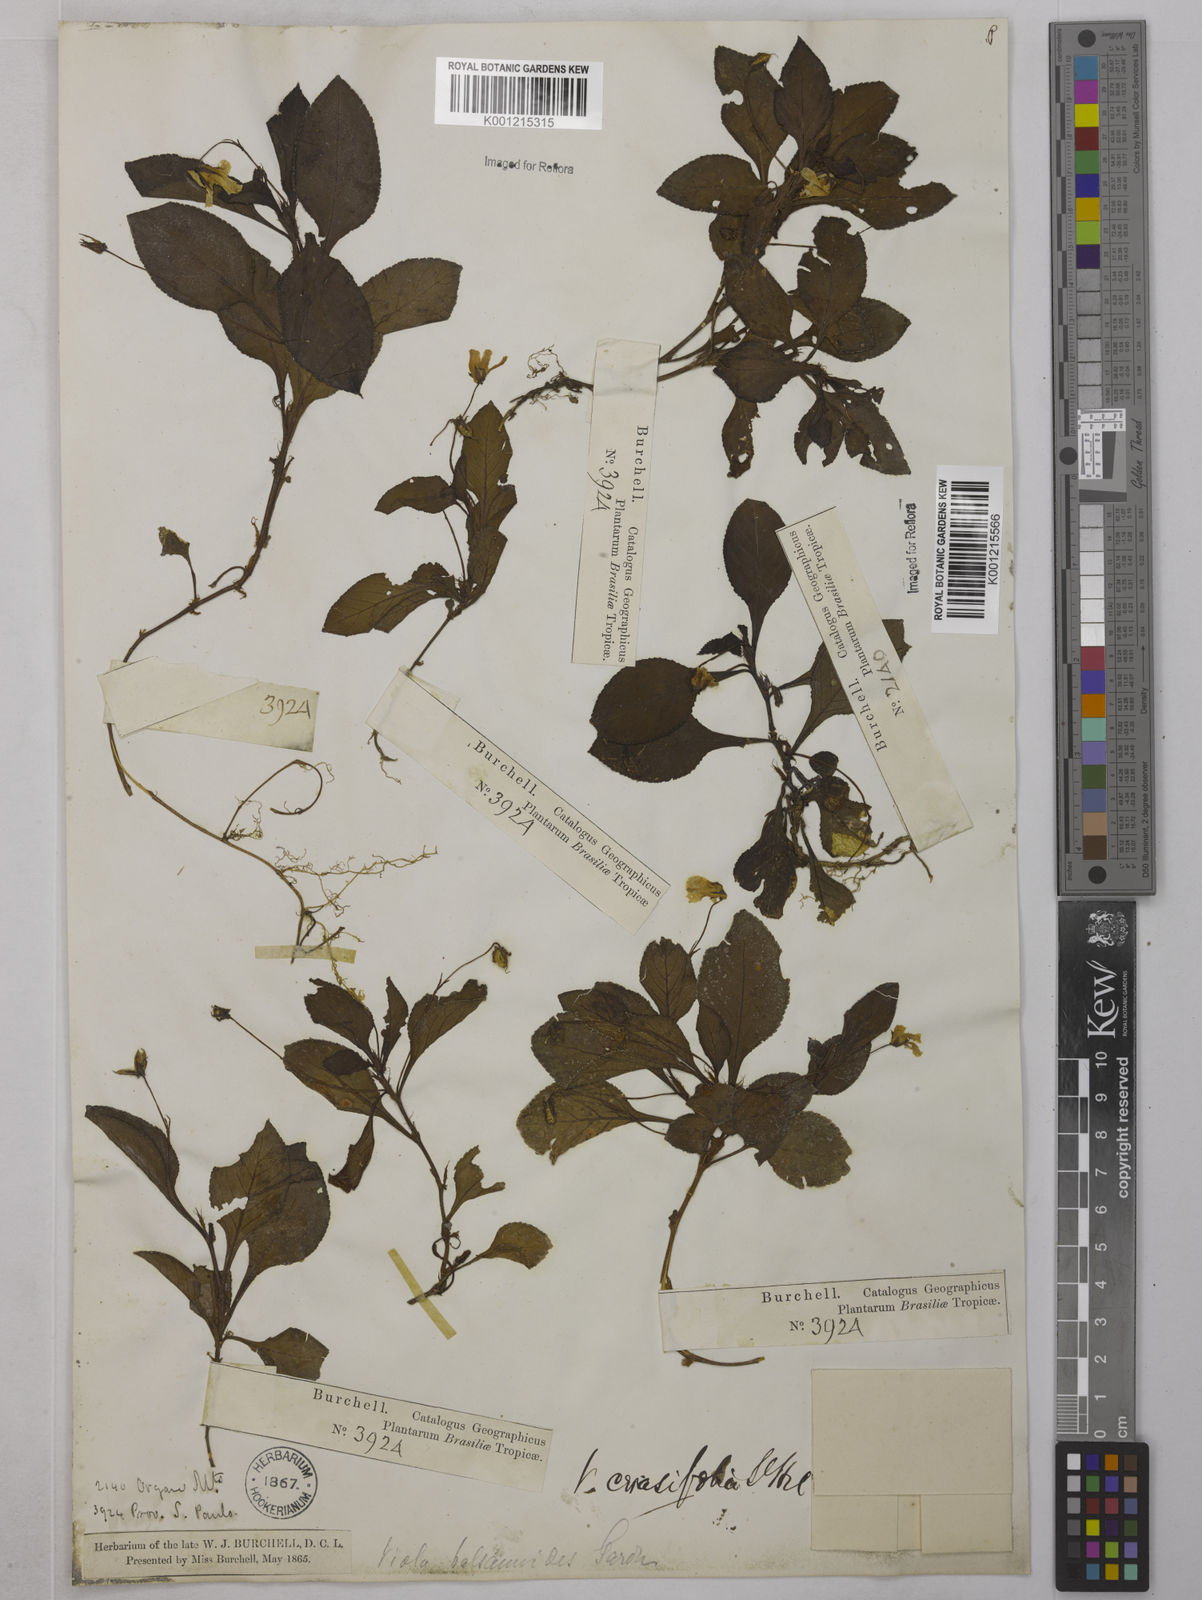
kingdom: Plantae
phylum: Tracheophyta
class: Magnoliopsida
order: Malpighiales
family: Violaceae
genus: Viola
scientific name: Viola cerasifolia
